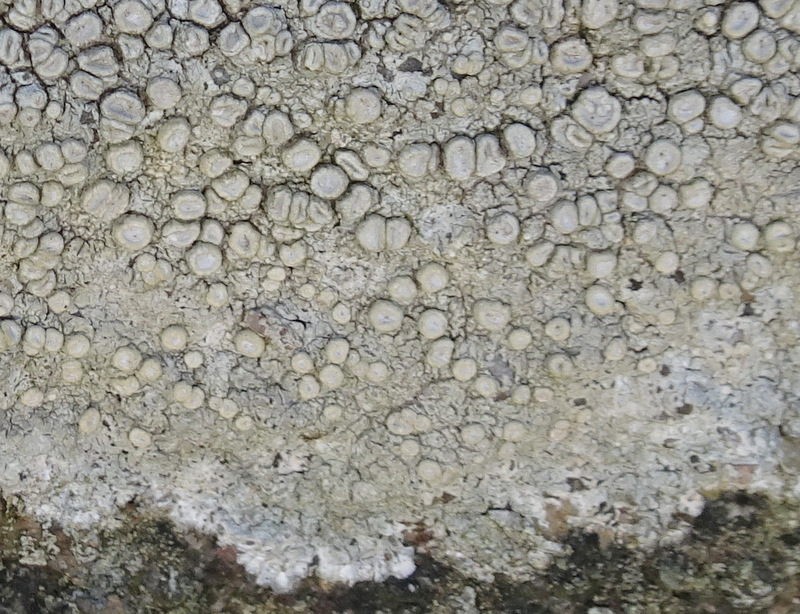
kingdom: Fungi
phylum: Ascomycota
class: Lecanoromycetes
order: Pertusariales
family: Ochrolechiaceae
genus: Ochrolechia
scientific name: Ochrolechia parella
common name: almindelig blegskivelav
